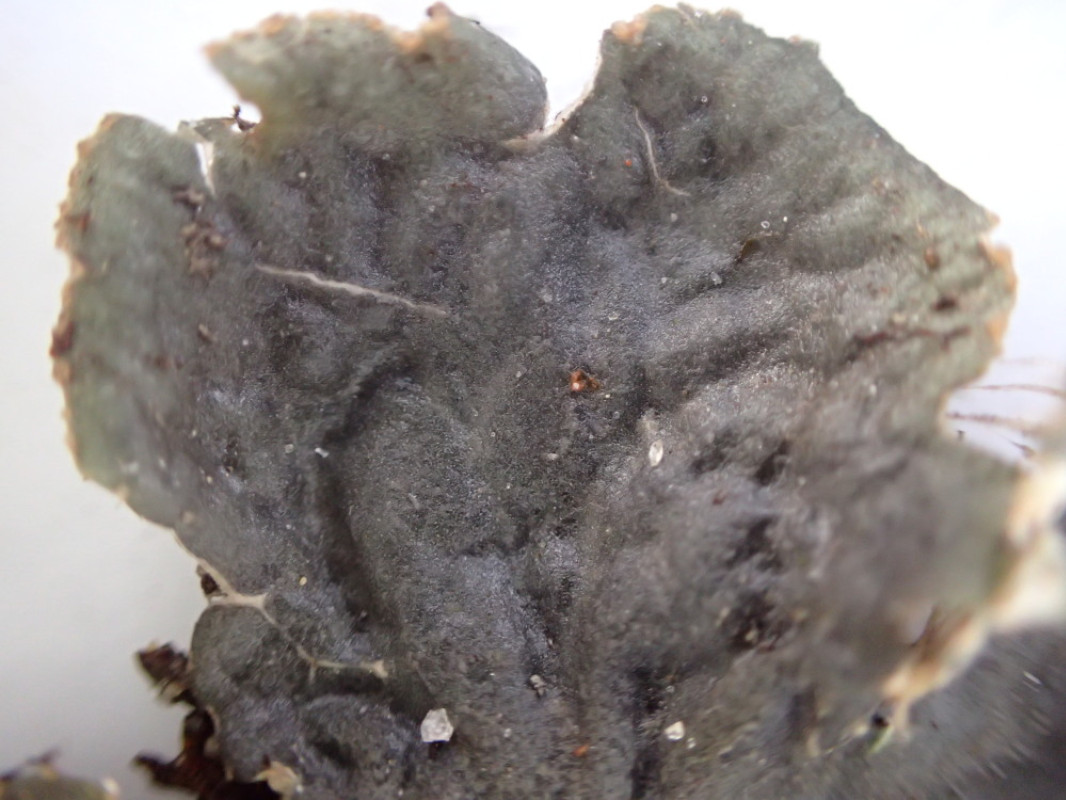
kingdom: Fungi
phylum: Ascomycota
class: Lecanoromycetes
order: Peltigerales
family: Peltigeraceae
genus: Peltigera
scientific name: Peltigera membranacea
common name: tynd skjoldlav
